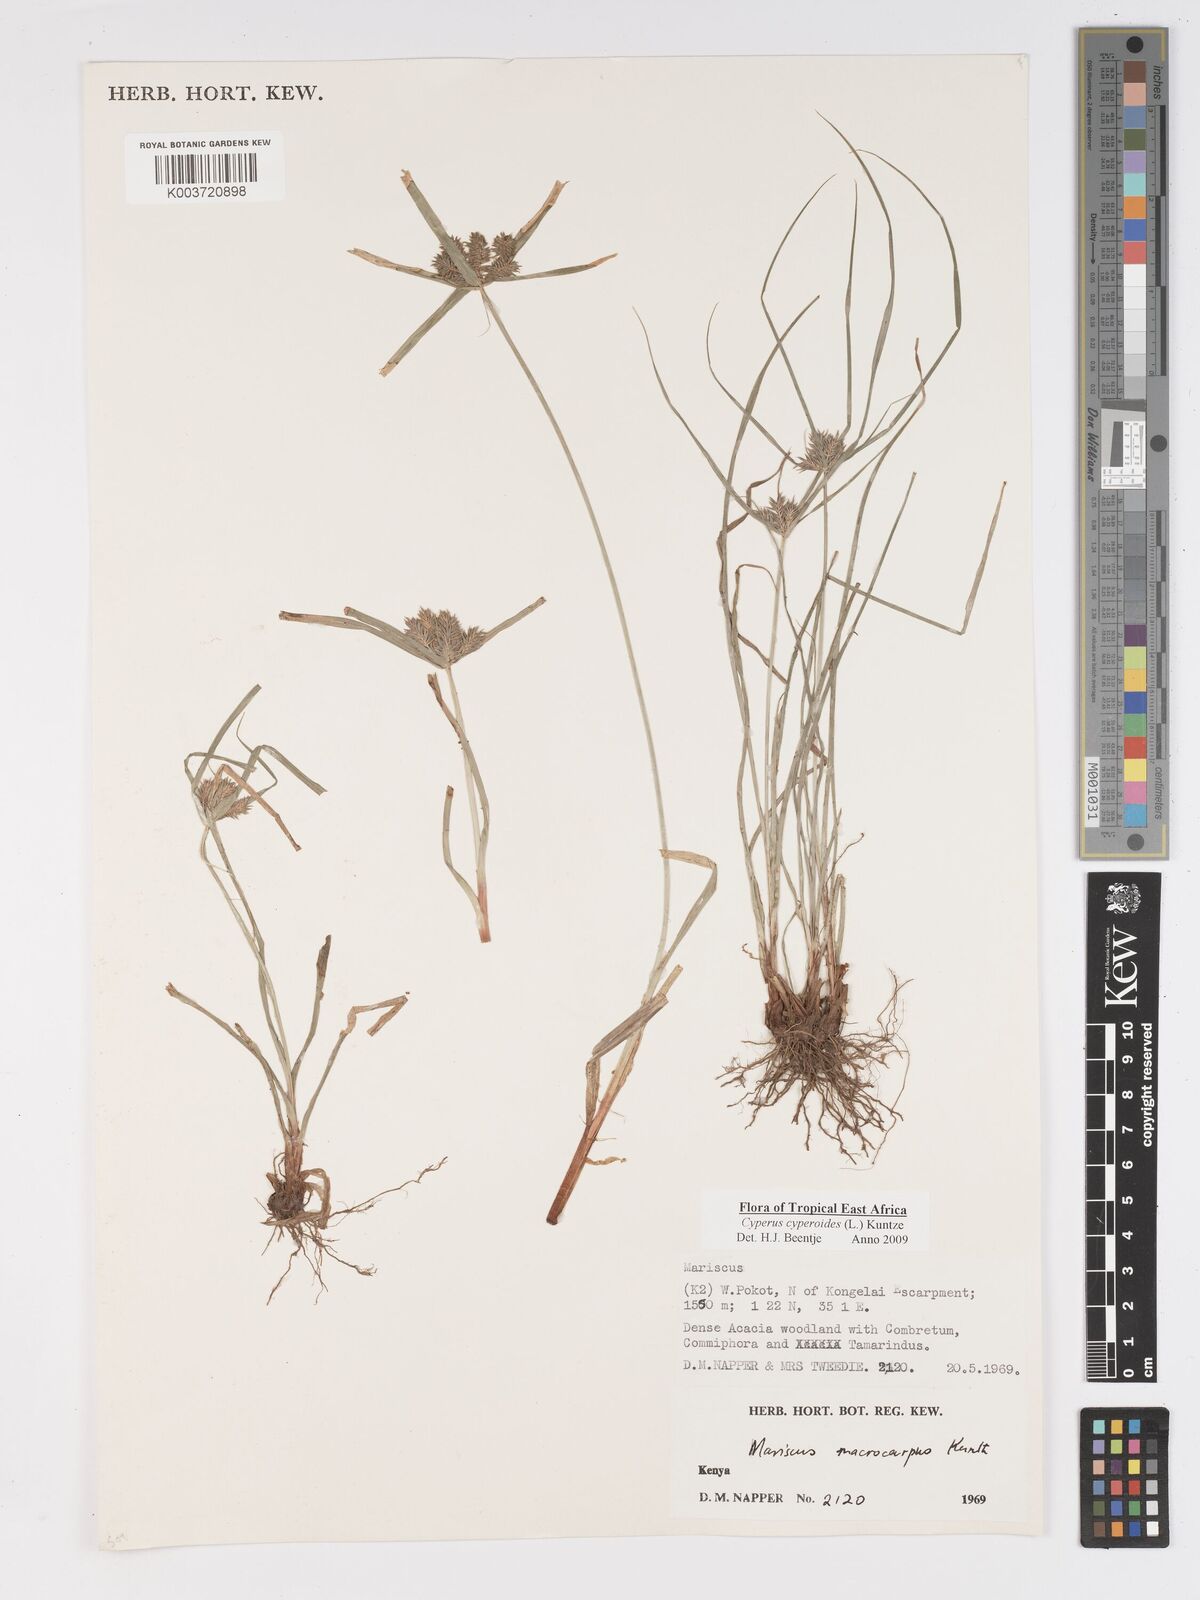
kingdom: Plantae
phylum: Tracheophyta
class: Liliopsida
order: Poales
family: Cyperaceae
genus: Cyperus
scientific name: Cyperus macrocarpus
